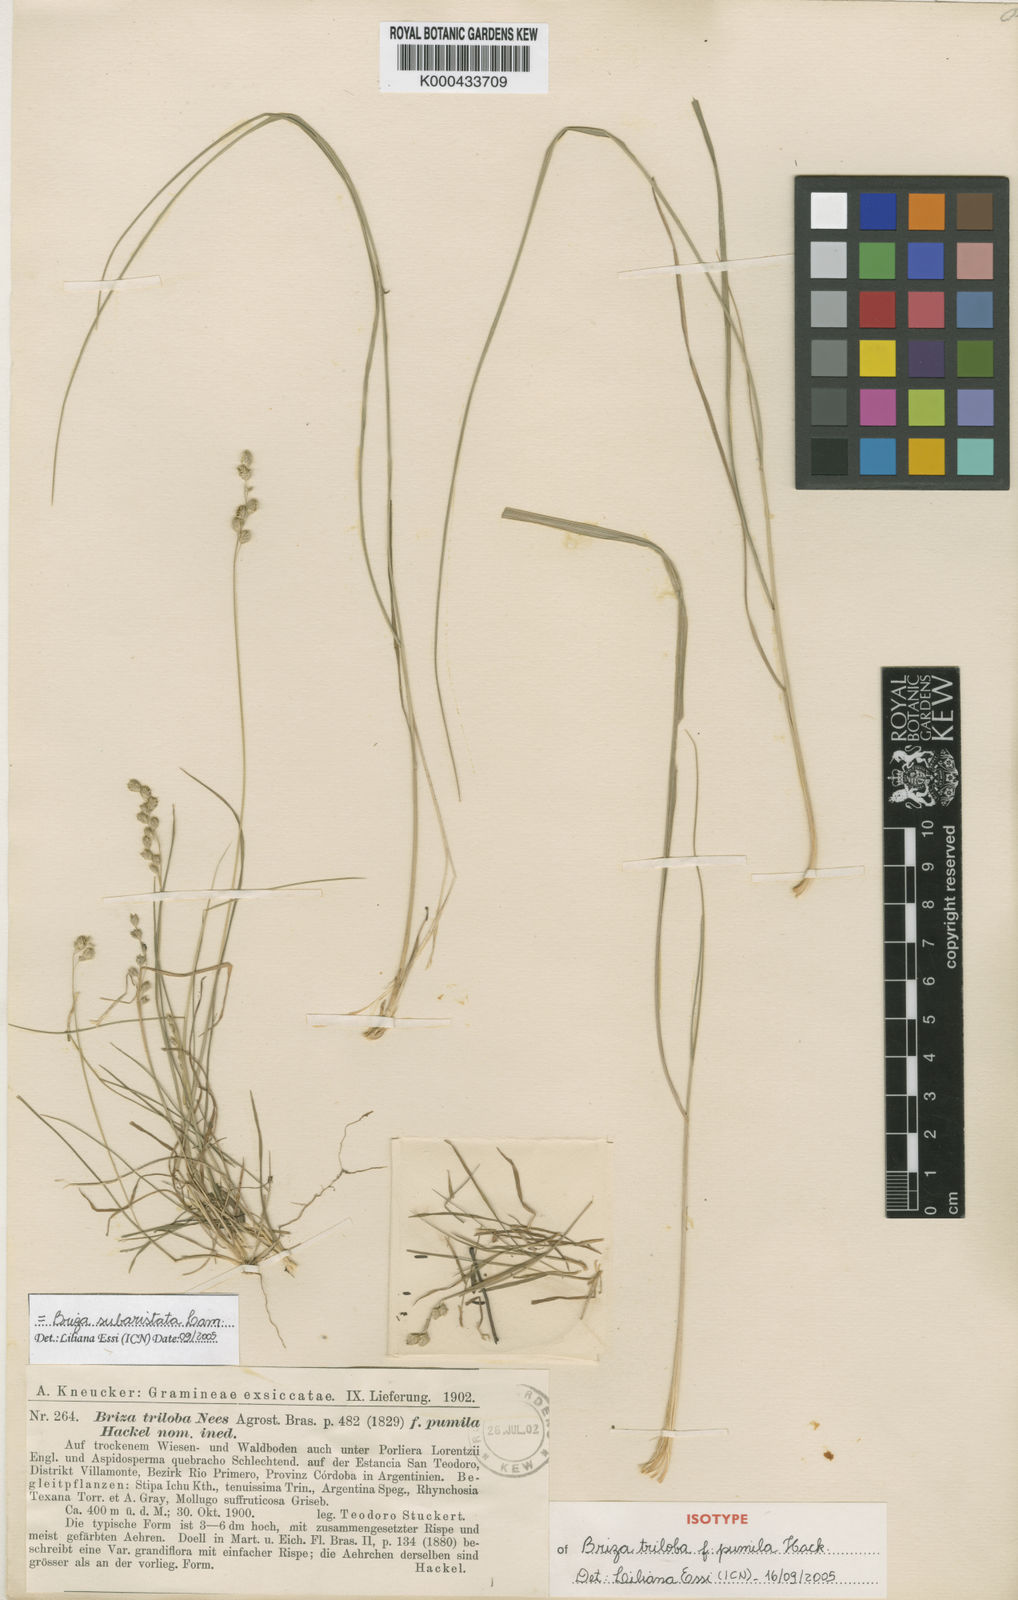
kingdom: Plantae
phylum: Tracheophyta
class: Liliopsida
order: Poales
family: Poaceae
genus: Chascolytrum
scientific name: Chascolytrum subaristatum
